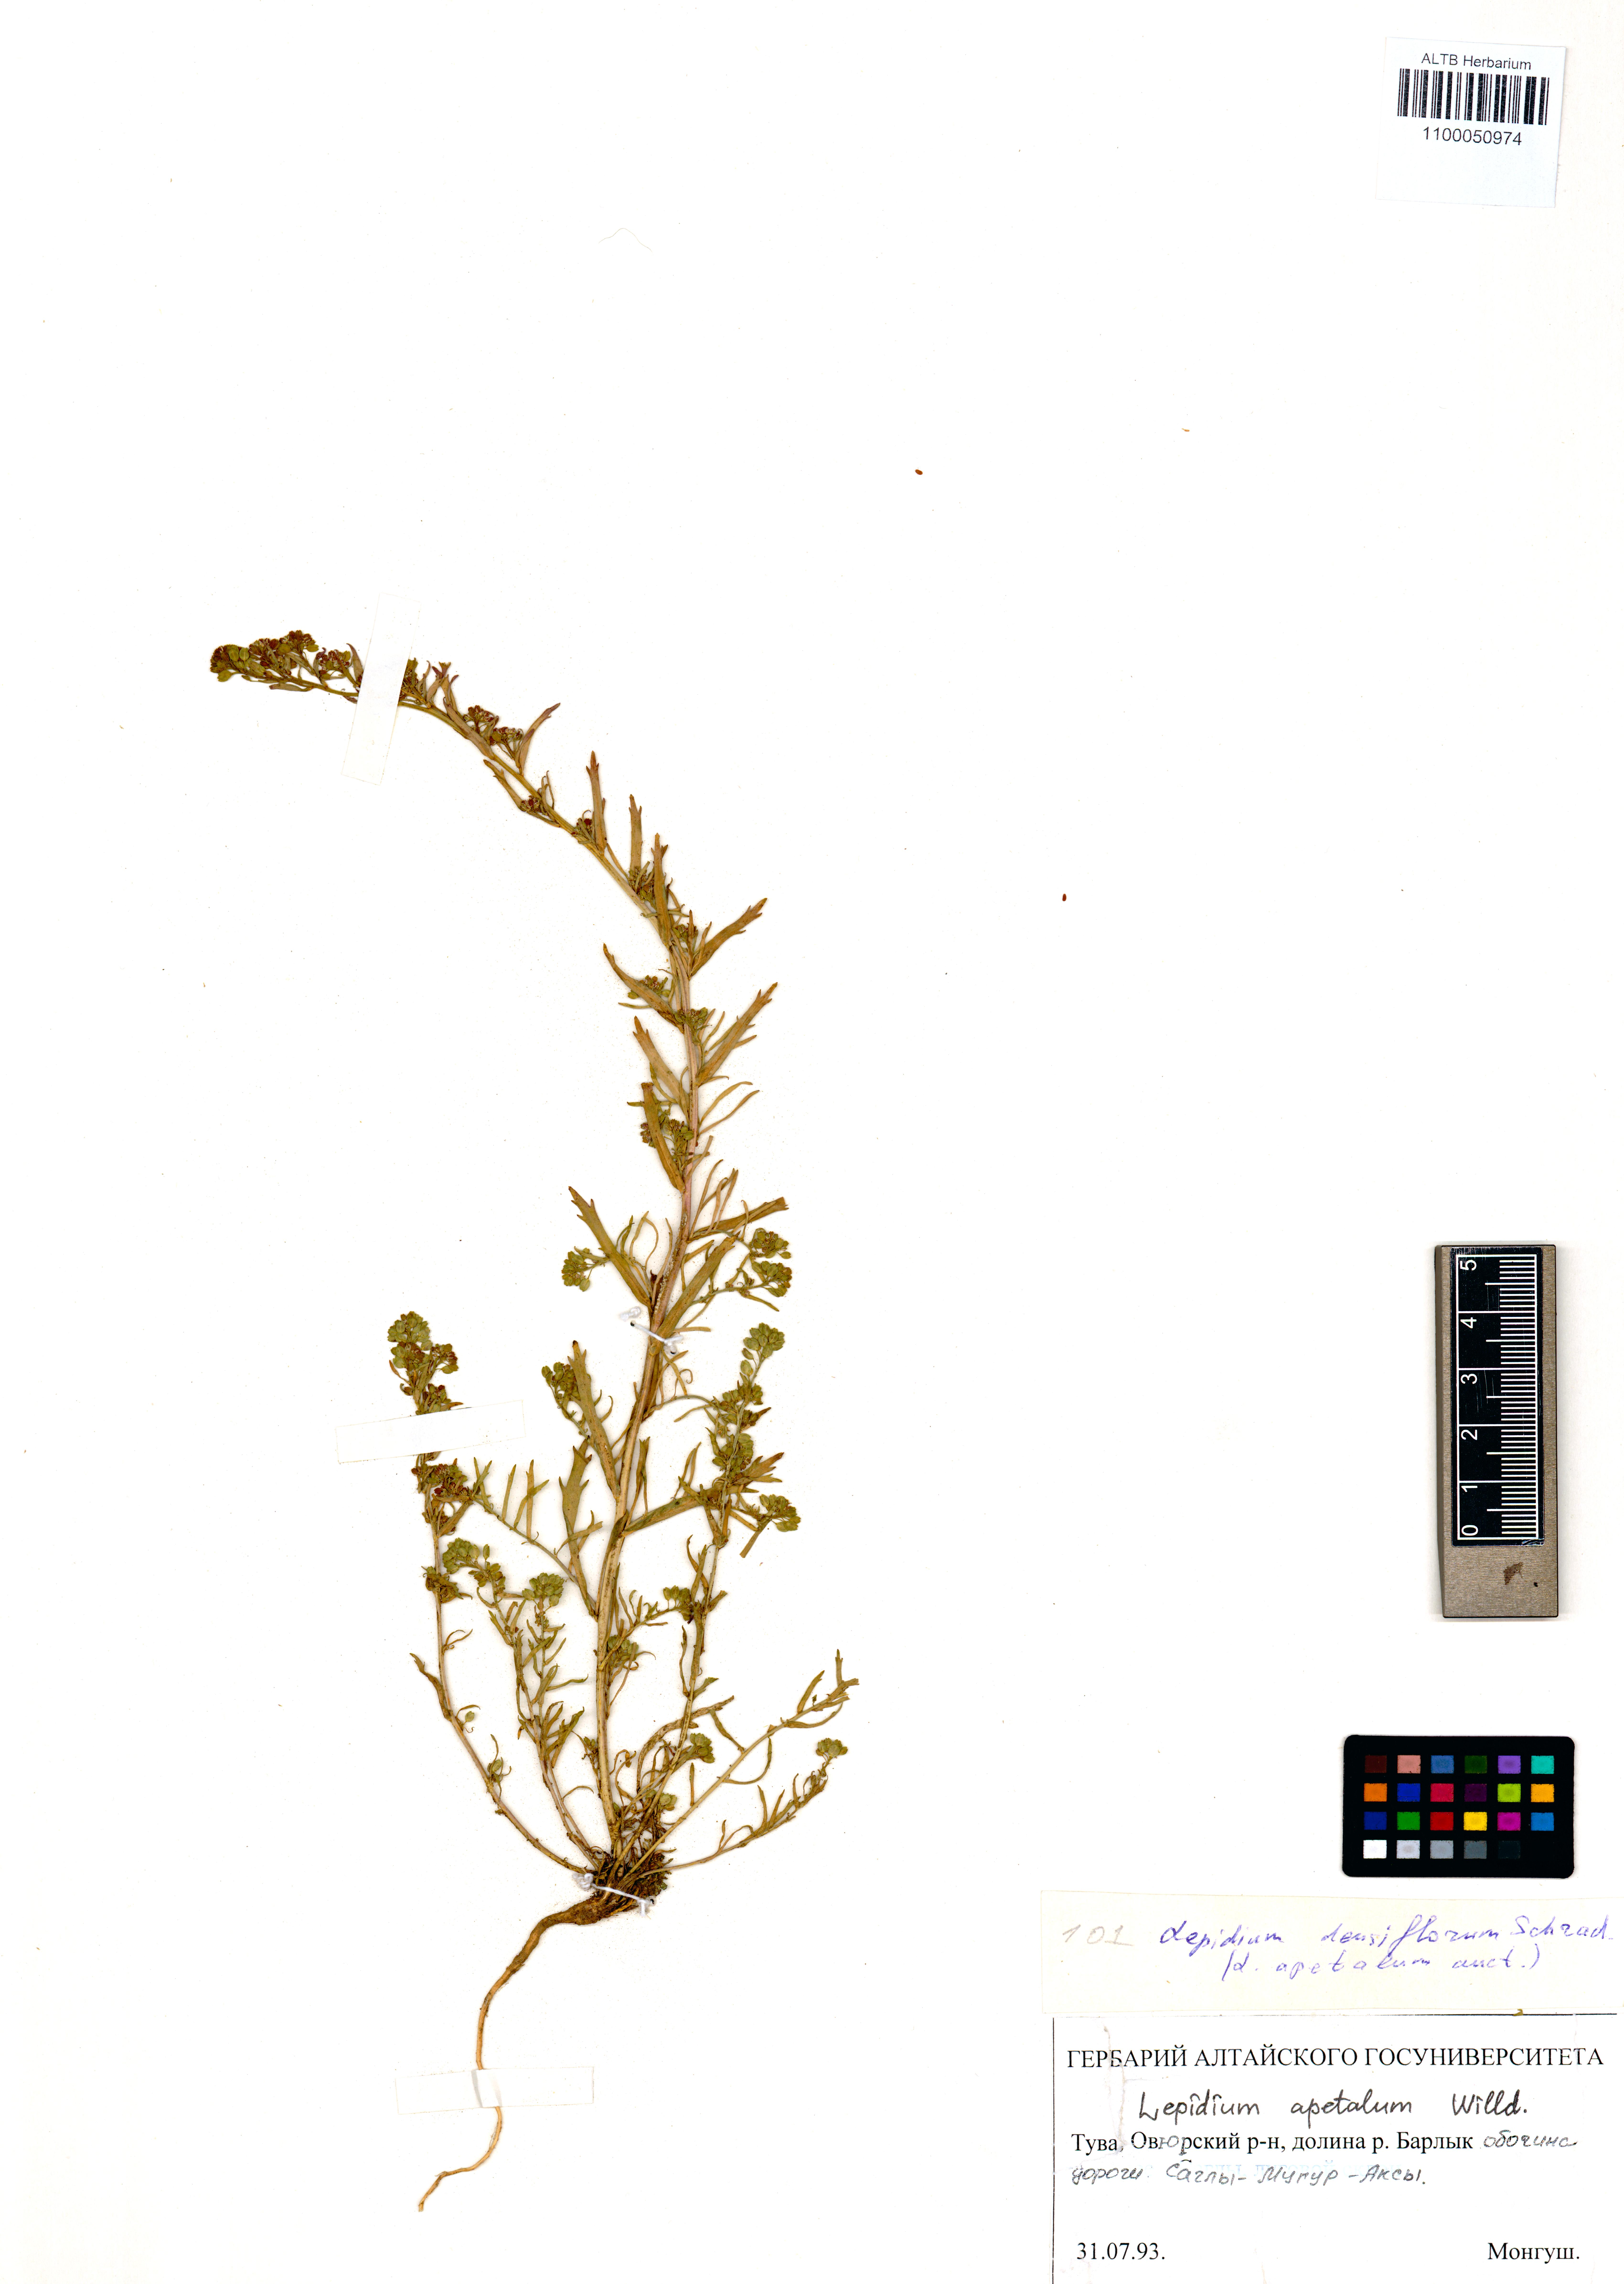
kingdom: Plantae
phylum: Tracheophyta
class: Magnoliopsida
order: Brassicales
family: Brassicaceae
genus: Lepidium
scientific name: Lepidium apetalum
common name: Pepperweed
